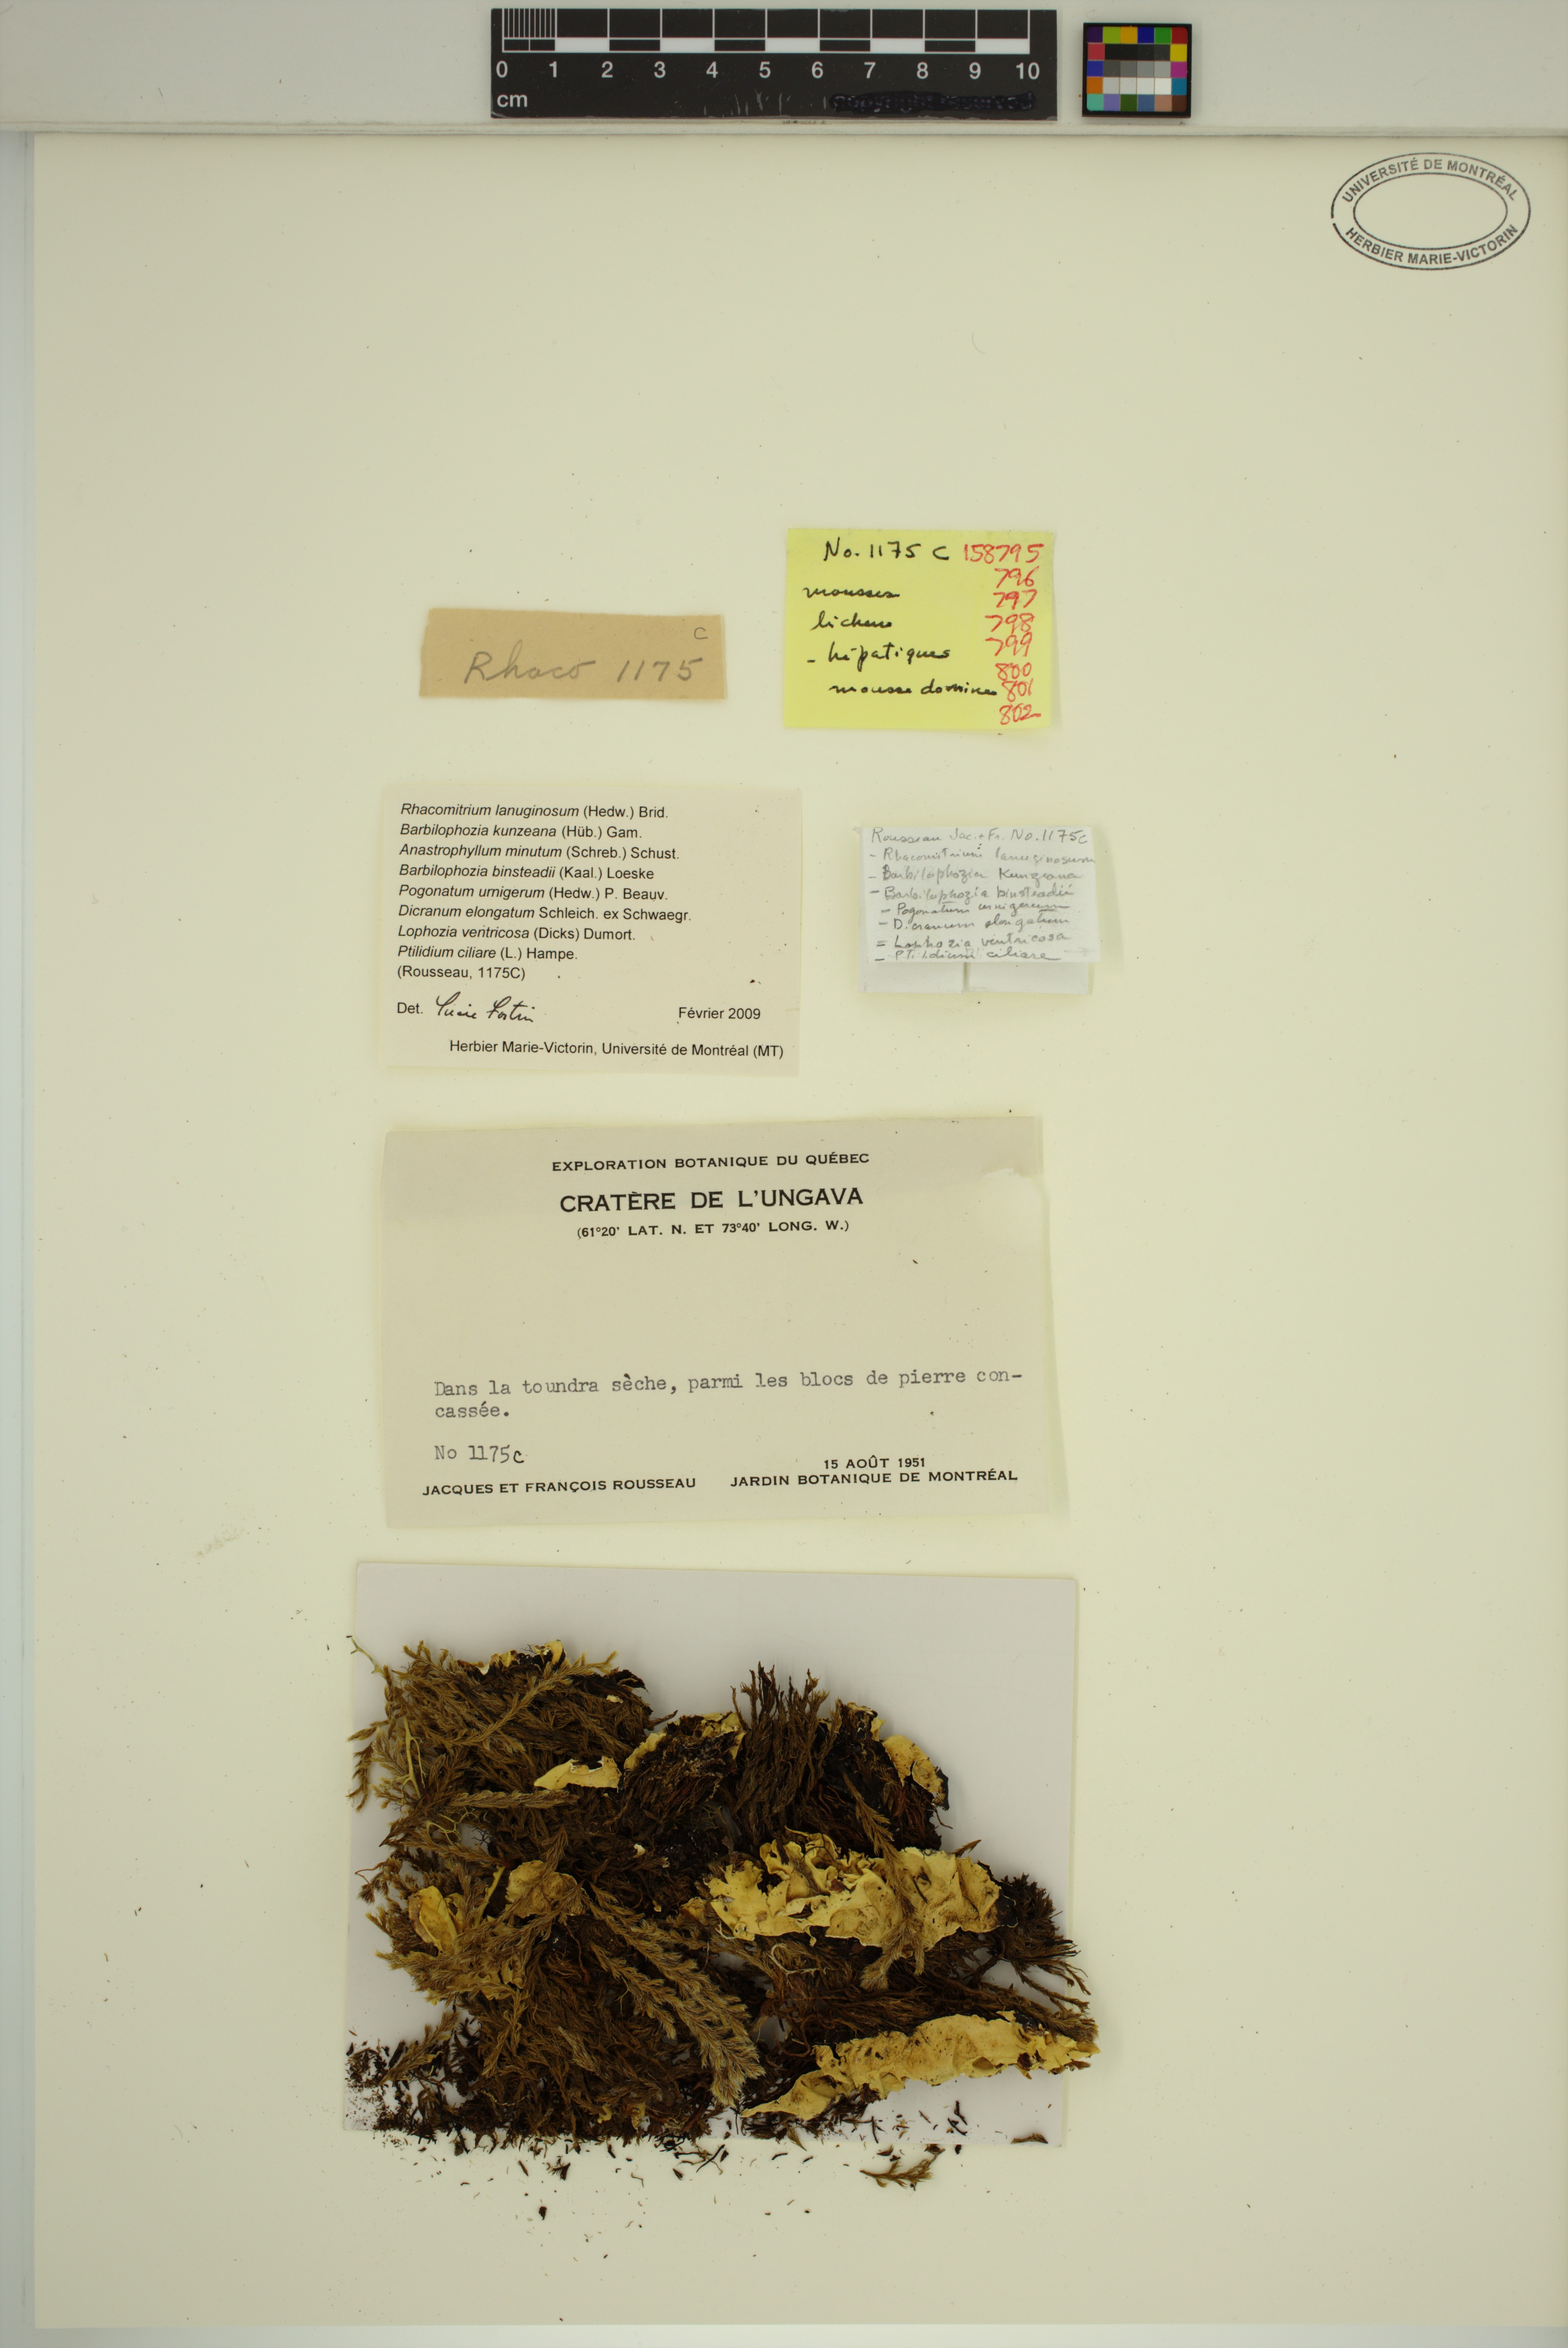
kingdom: Plantae
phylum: Bryophyta
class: Bryopsida
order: Grimmiales
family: Grimmiaceae
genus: Racomitrium
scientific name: Racomitrium lanuginosum
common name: Hoary rock moss
